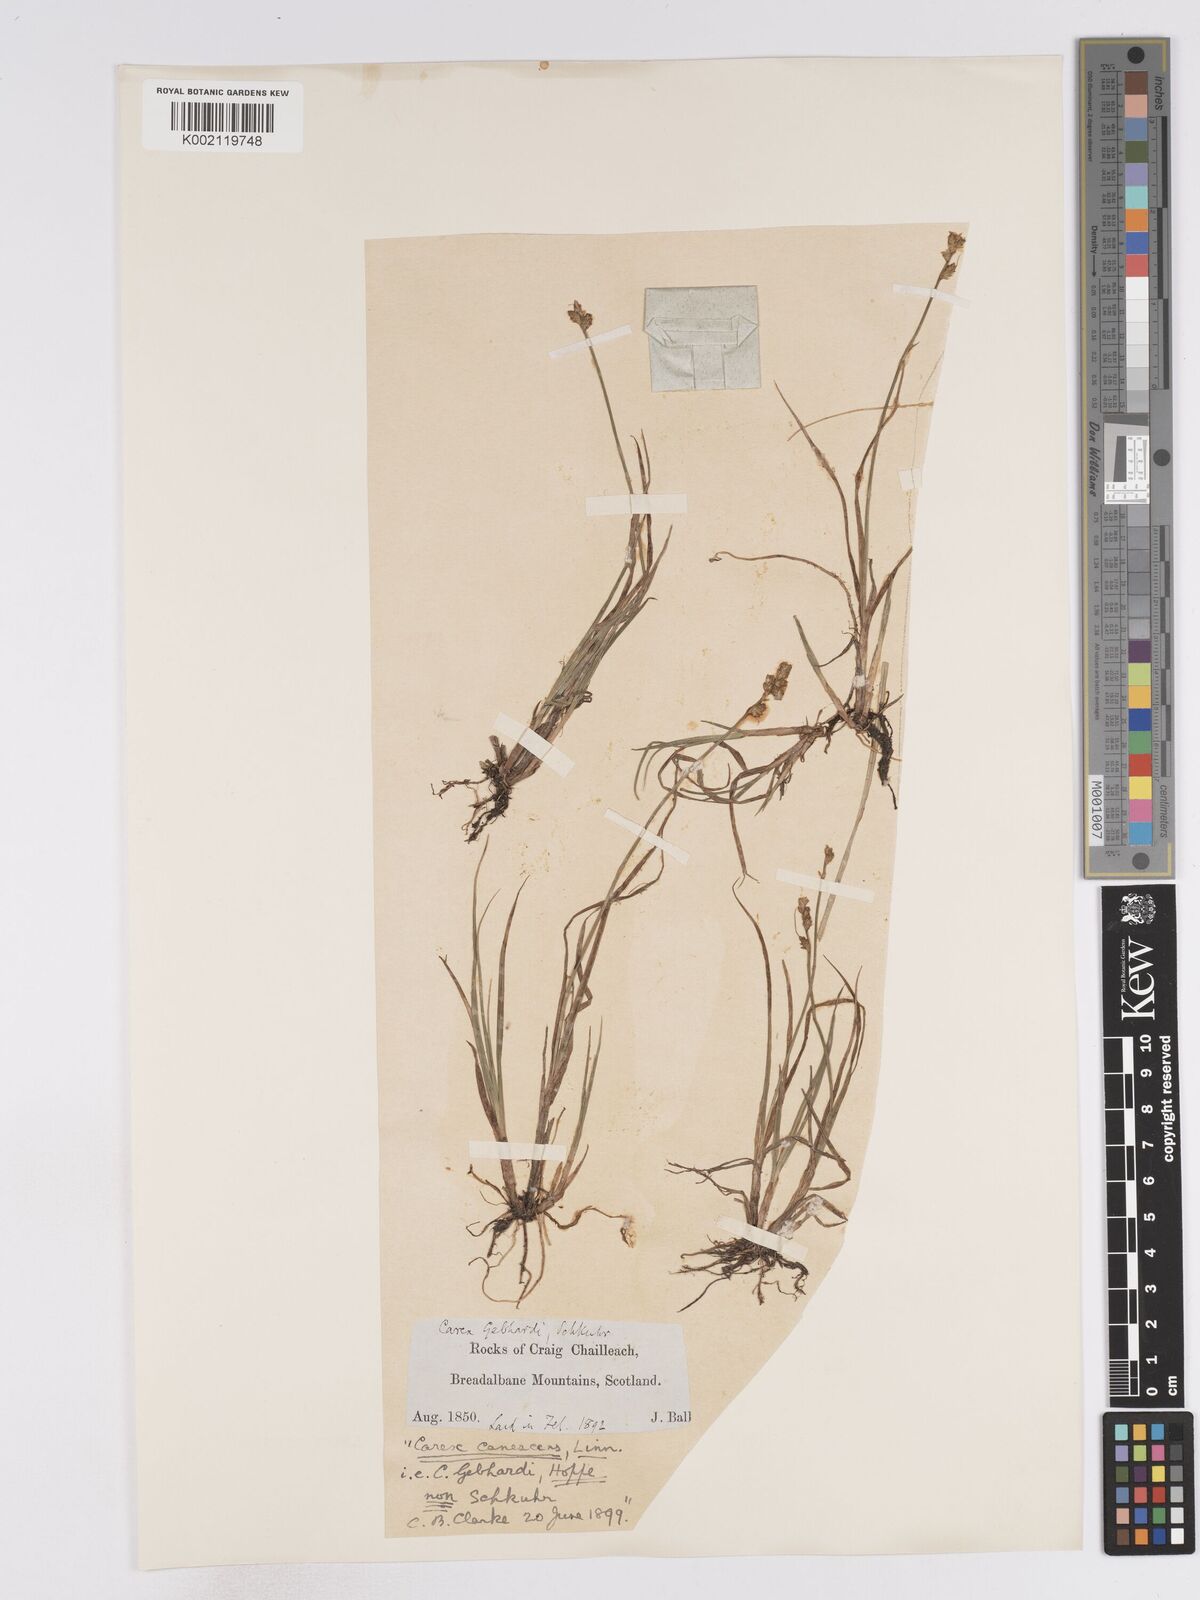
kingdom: Plantae
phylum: Tracheophyta
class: Liliopsida
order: Poales
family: Cyperaceae
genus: Carex
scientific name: Carex curta
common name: White sedge
